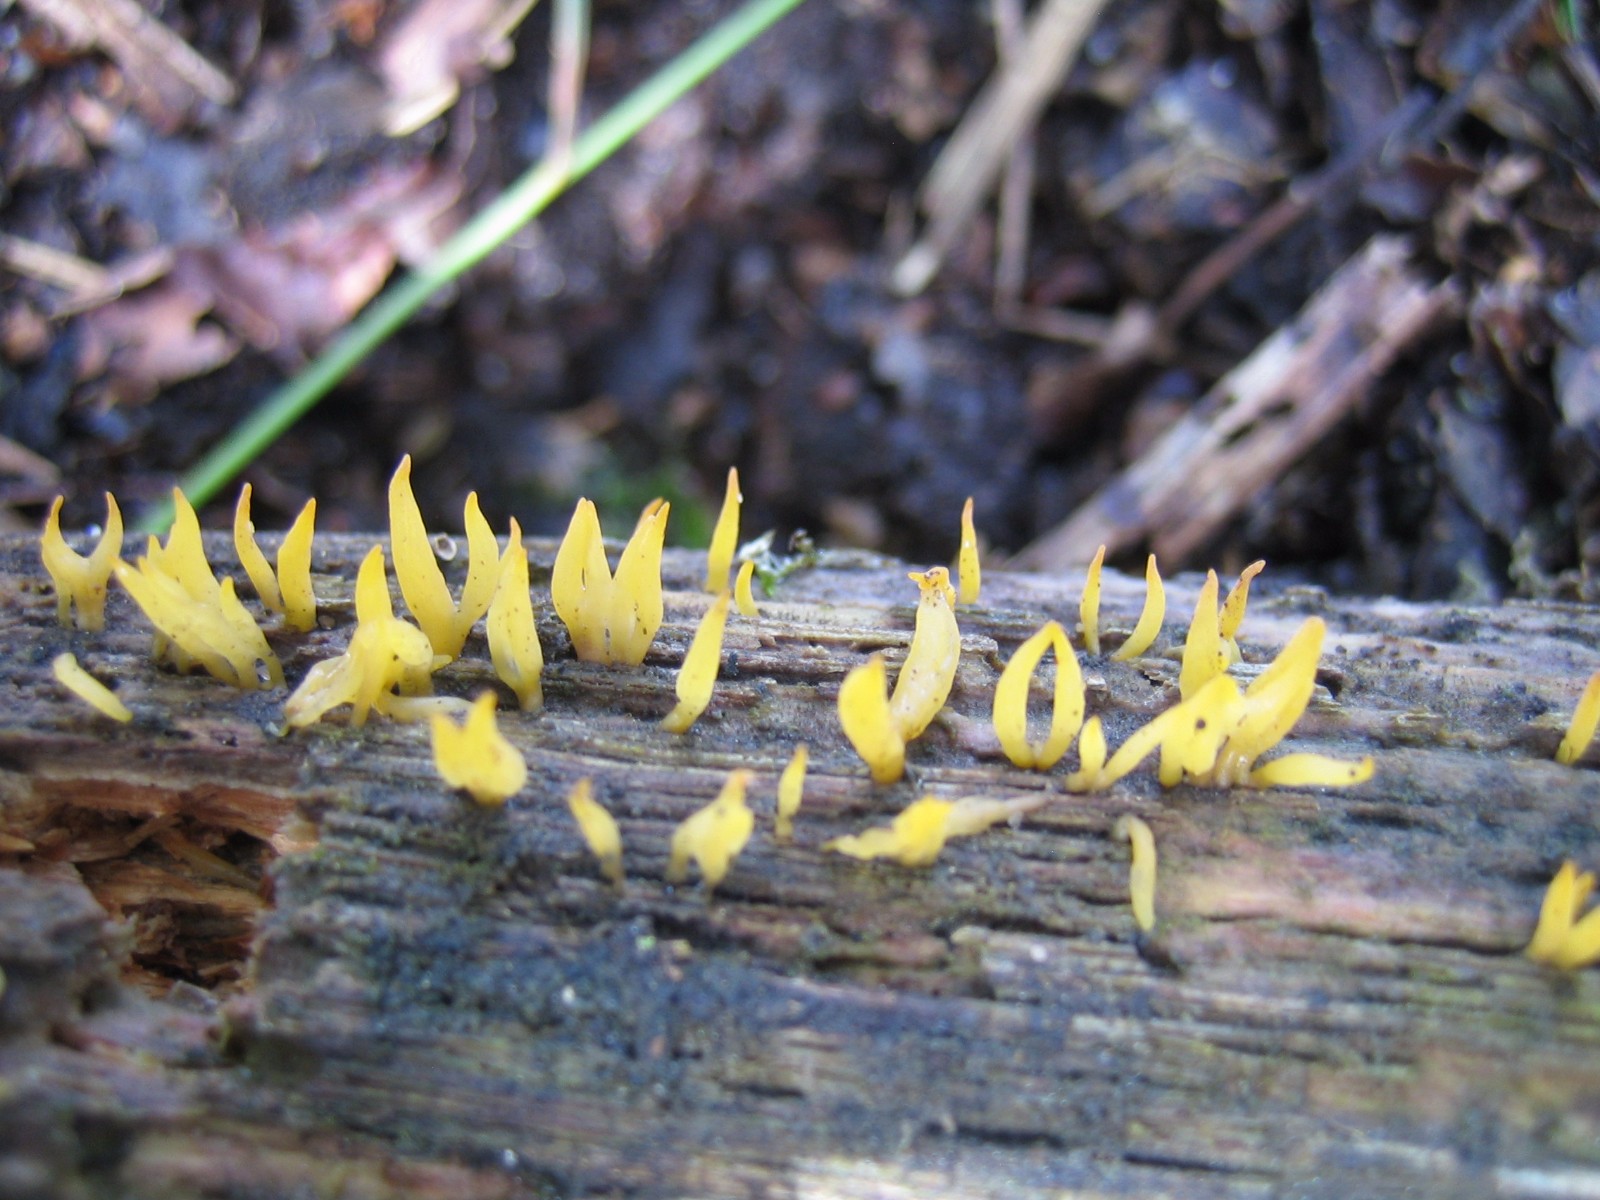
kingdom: Fungi
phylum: Basidiomycota
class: Dacrymycetes
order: Dacrymycetales
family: Dacrymycetaceae
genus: Calocera
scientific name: Calocera cornea
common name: liden guldgaffel
